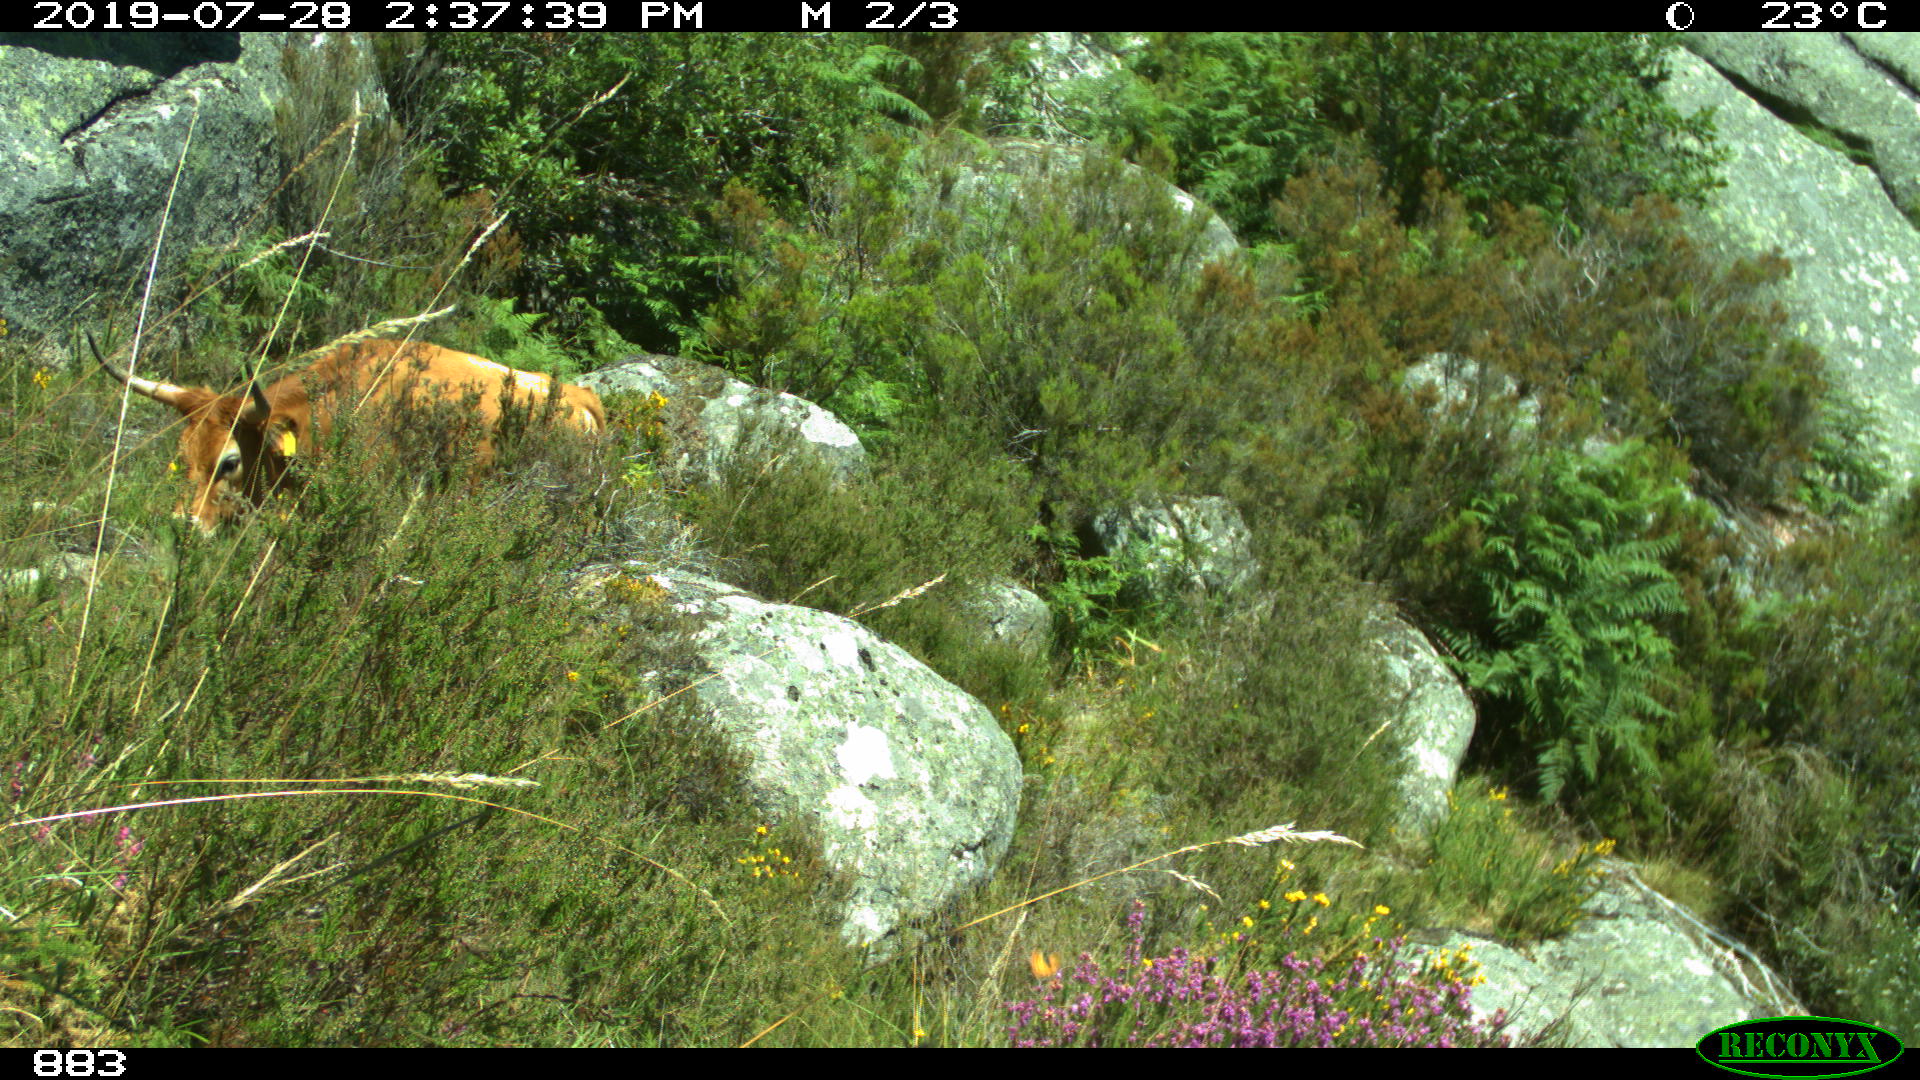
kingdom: Animalia
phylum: Chordata
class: Mammalia
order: Artiodactyla
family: Bovidae
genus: Bos
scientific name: Bos taurus
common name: Domesticated cattle
